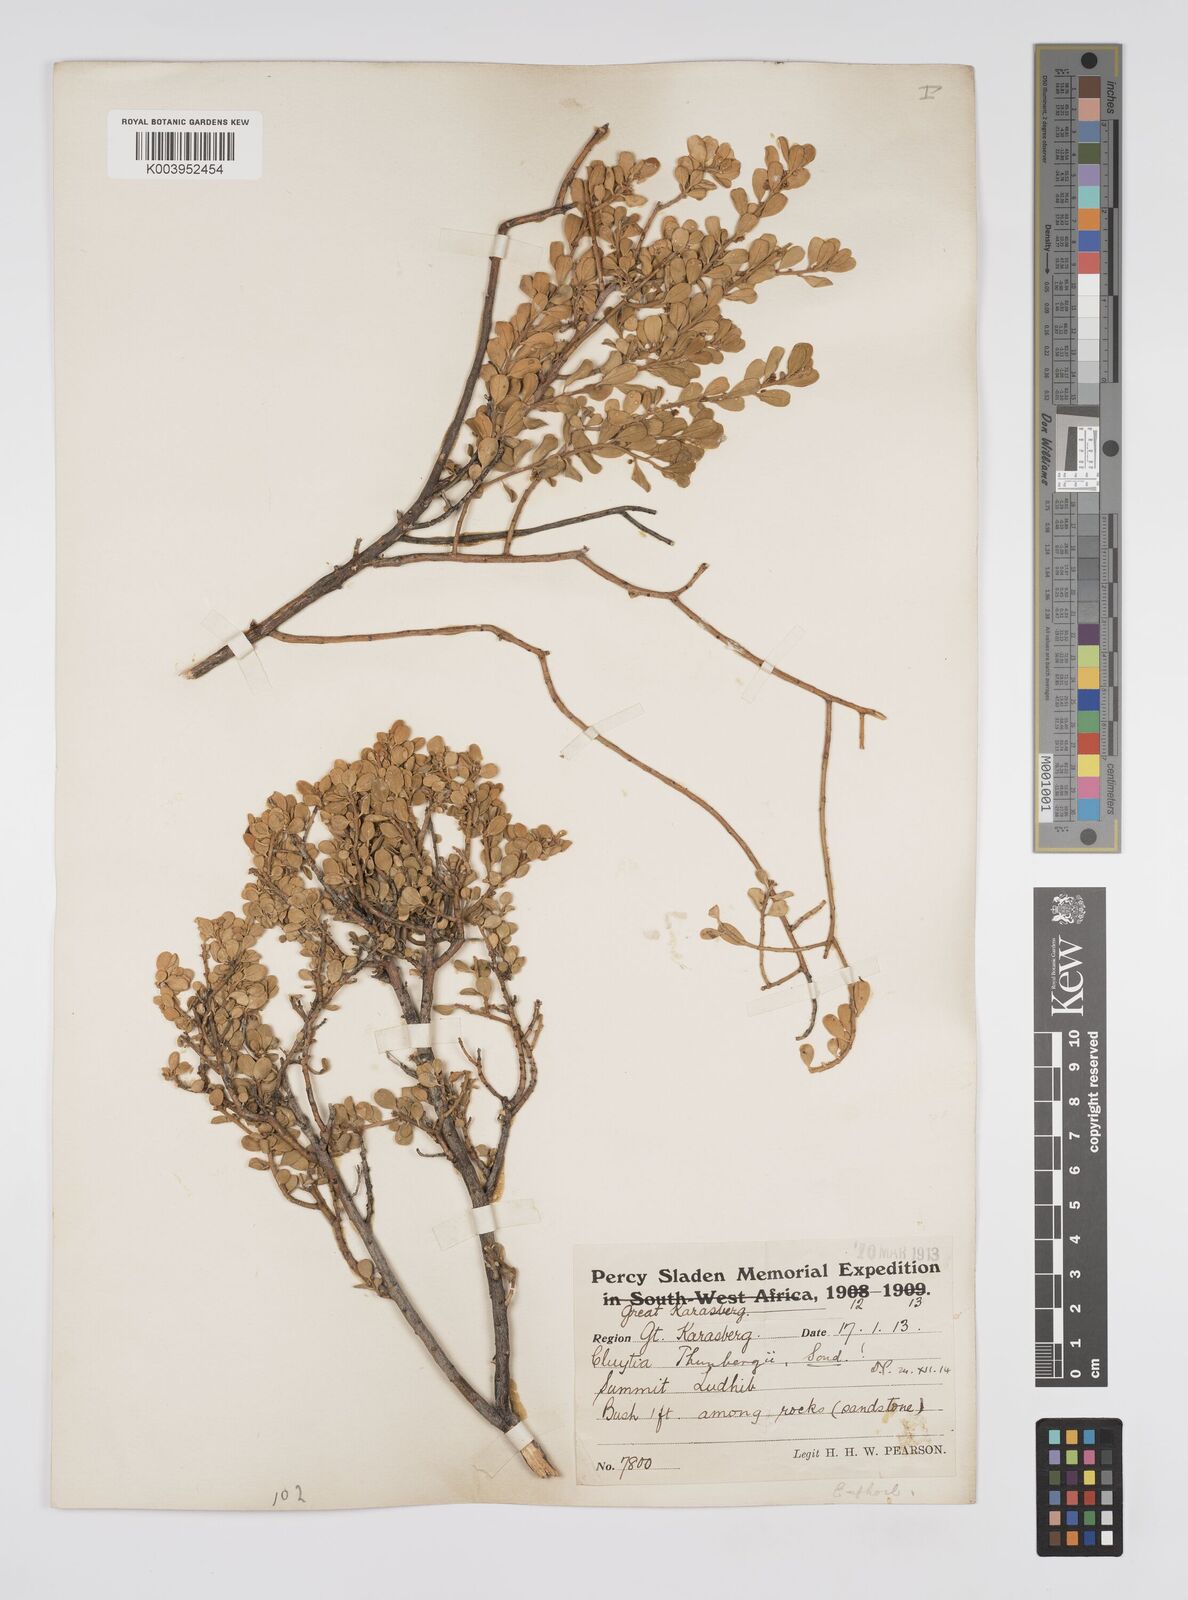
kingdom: Plantae
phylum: Tracheophyta
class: Magnoliopsida
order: Malpighiales
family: Peraceae
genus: Clutia
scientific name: Clutia thunbergii
